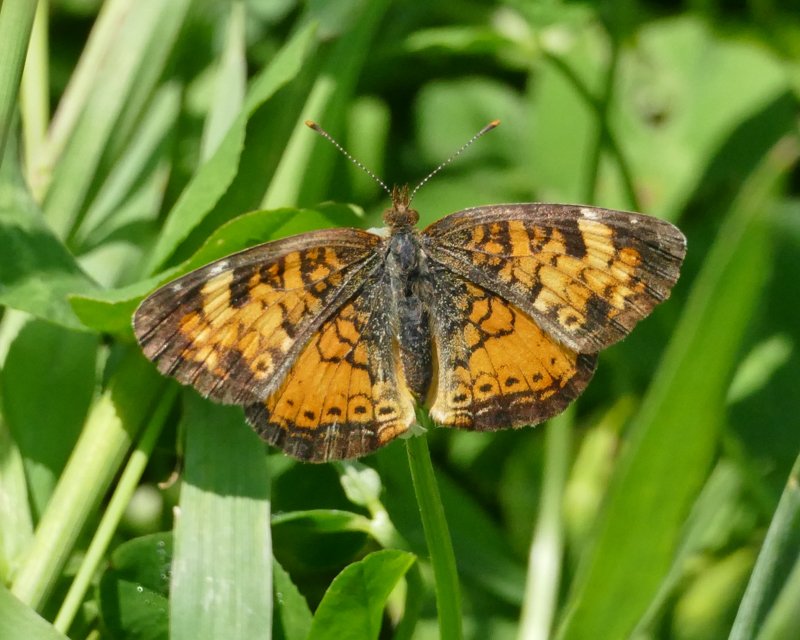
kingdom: Animalia
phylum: Arthropoda
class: Insecta
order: Lepidoptera
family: Nymphalidae
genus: Phyciodes
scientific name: Phyciodes tharos
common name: Northern Crescent
